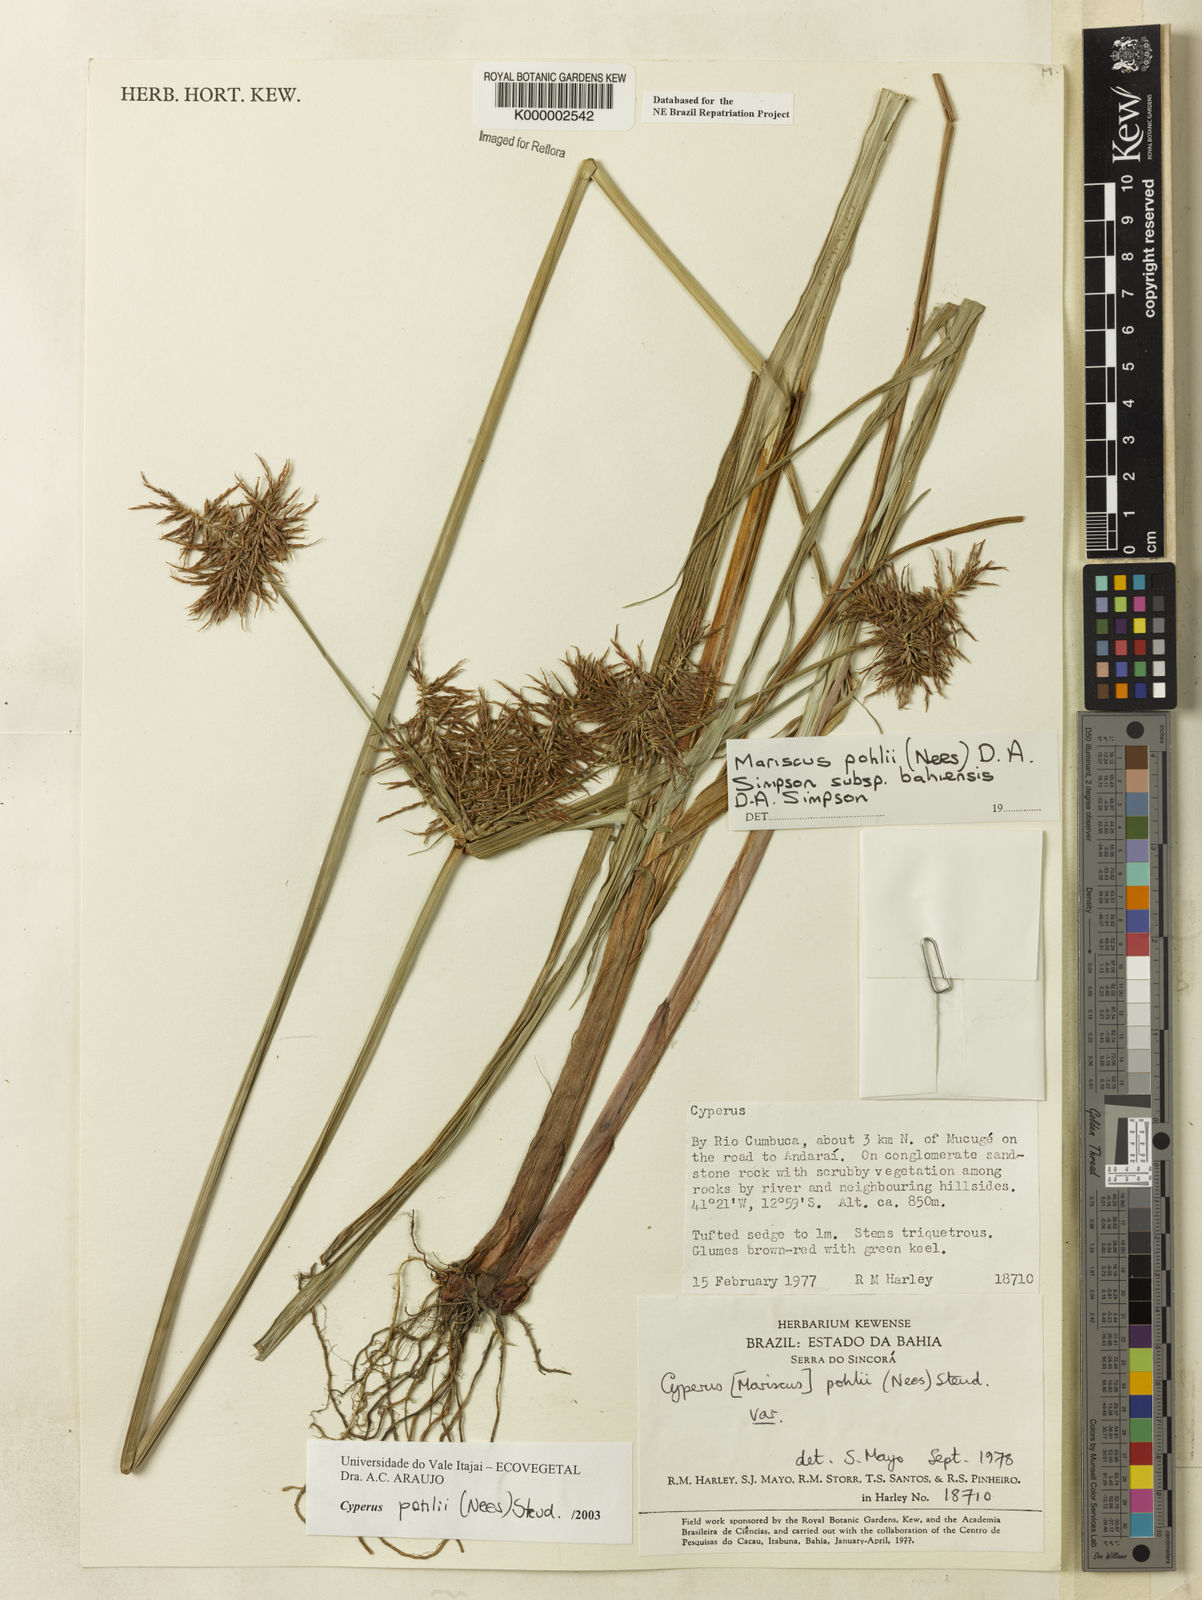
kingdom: Plantae
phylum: Tracheophyta
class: Liliopsida
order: Poales
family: Cyperaceae
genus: Cyperus
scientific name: Cyperus pohlii
